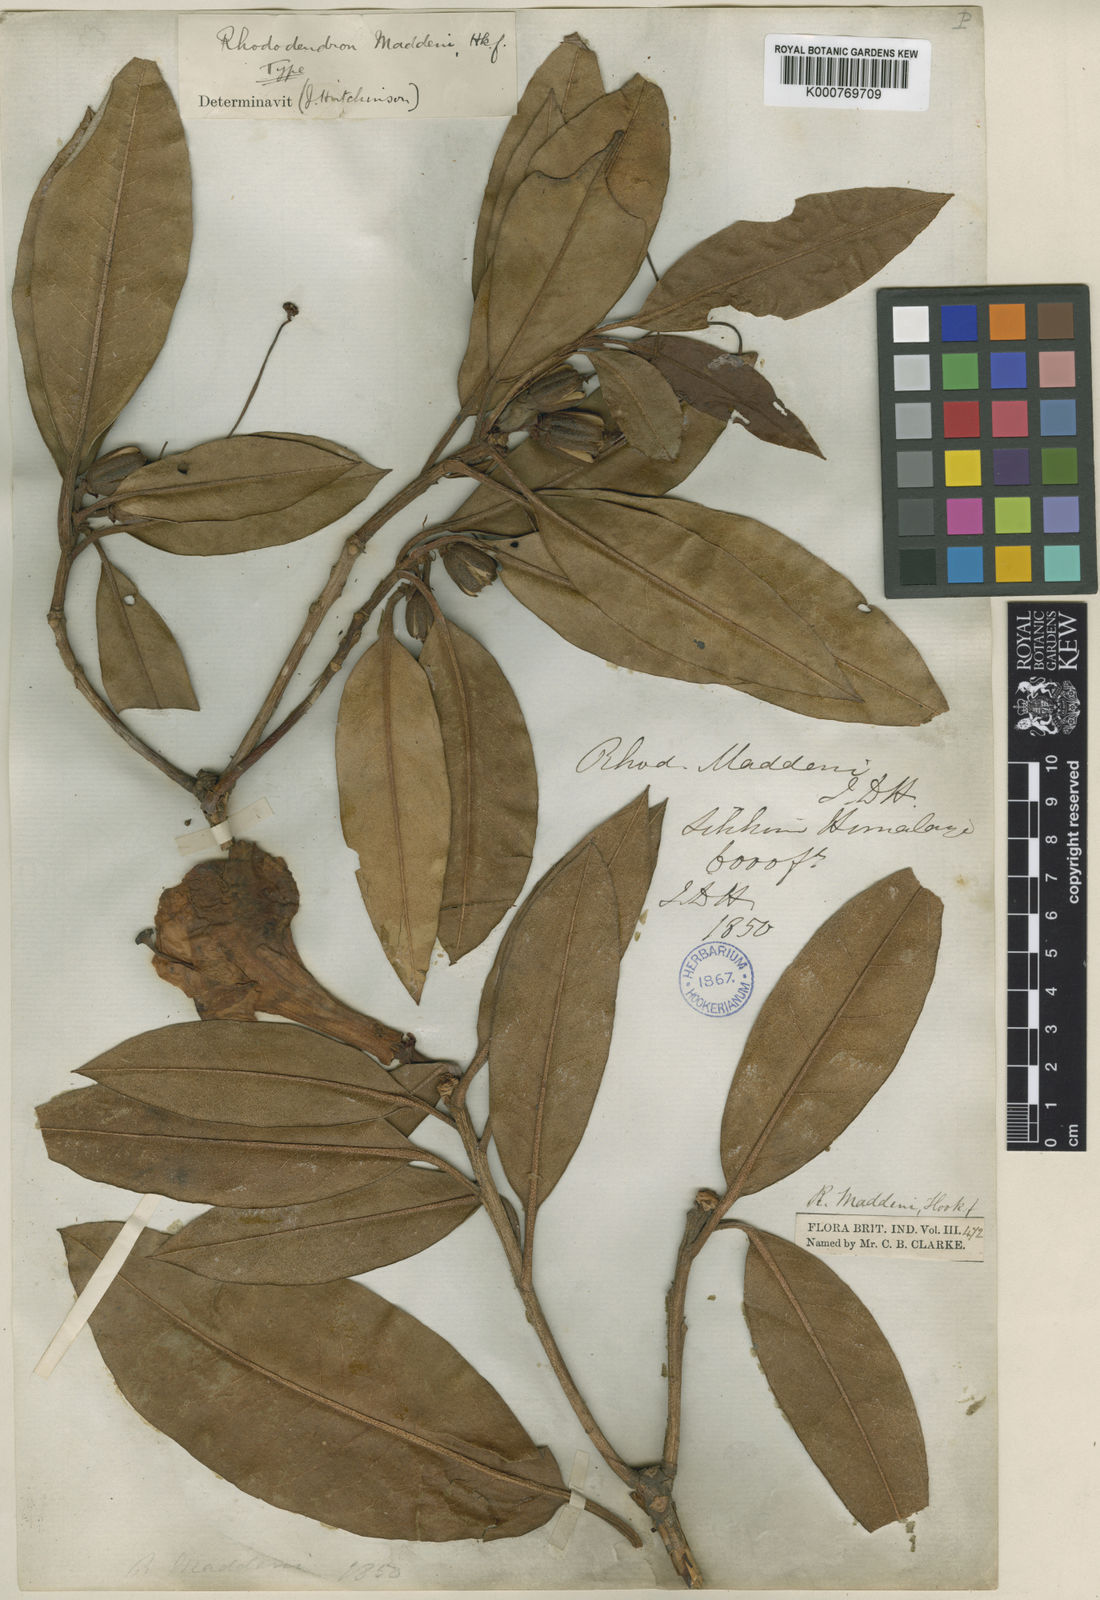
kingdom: Plantae
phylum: Tracheophyta
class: Magnoliopsida
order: Ericales
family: Ericaceae
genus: Rhododendron
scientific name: Rhododendron maddenii
